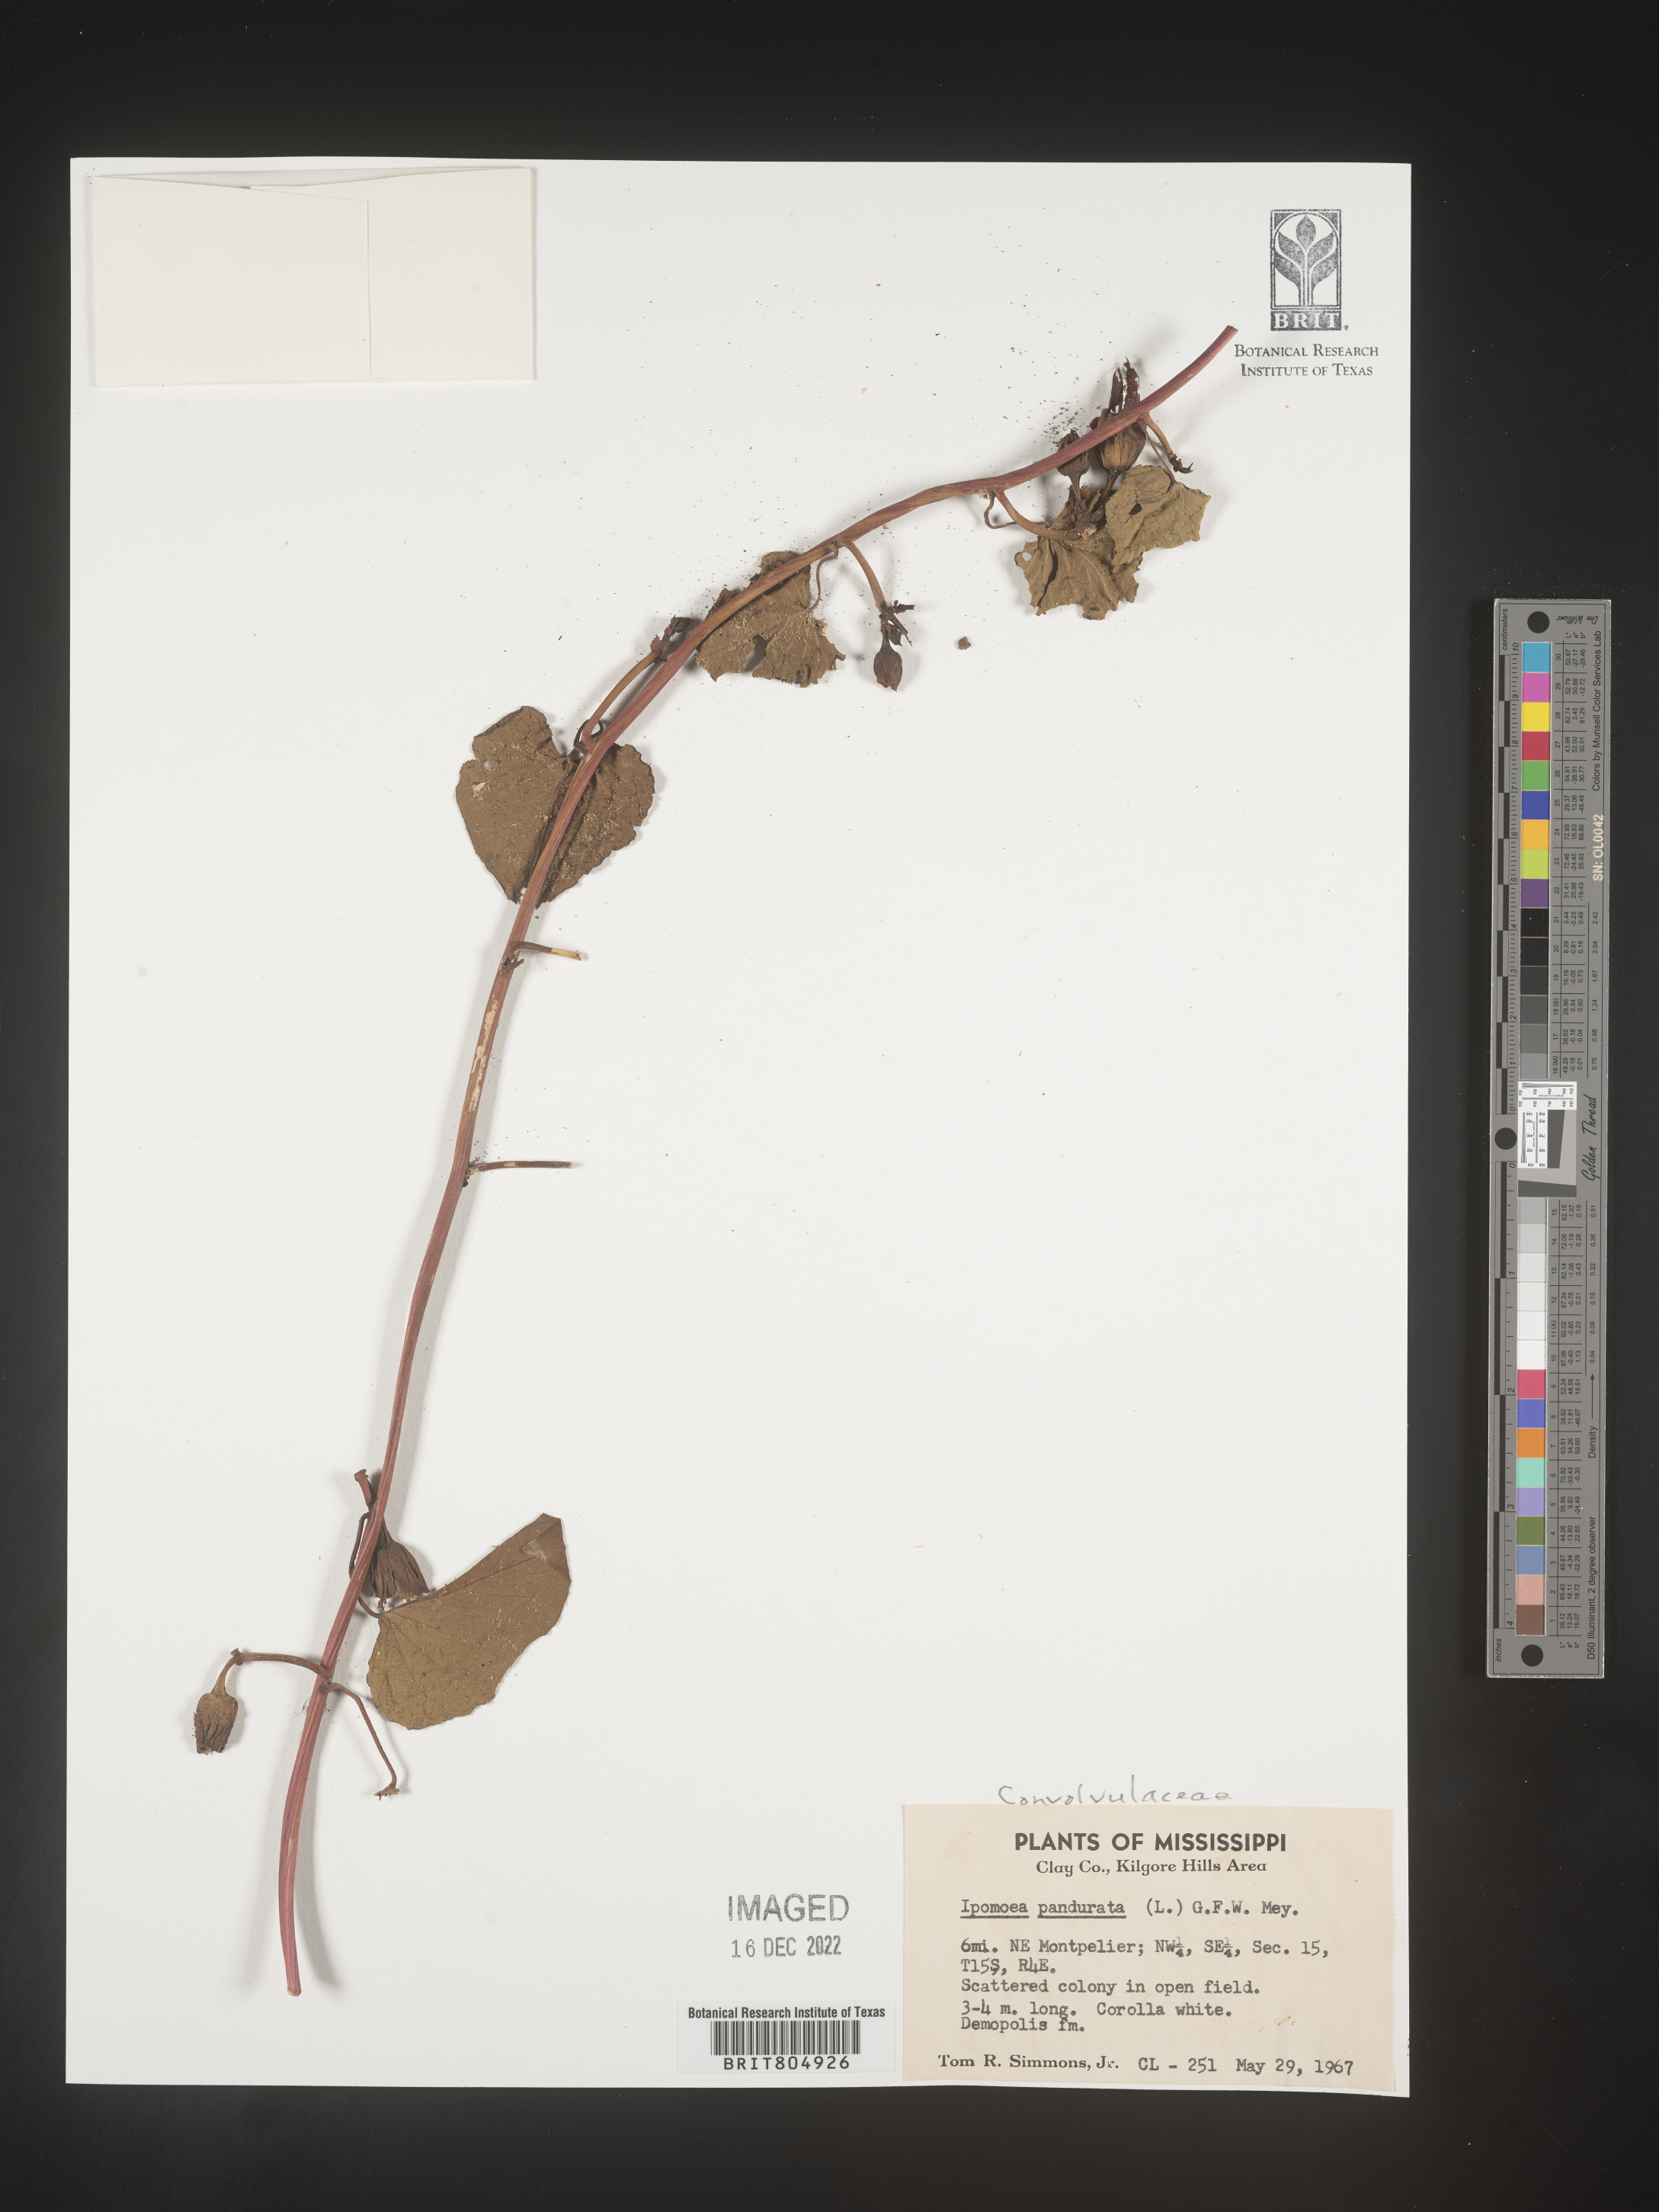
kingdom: Plantae
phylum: Tracheophyta
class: Magnoliopsida
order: Solanales
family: Convolvulaceae
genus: Ipomoea
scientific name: Ipomoea pandurata
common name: Man-of-the-earth
